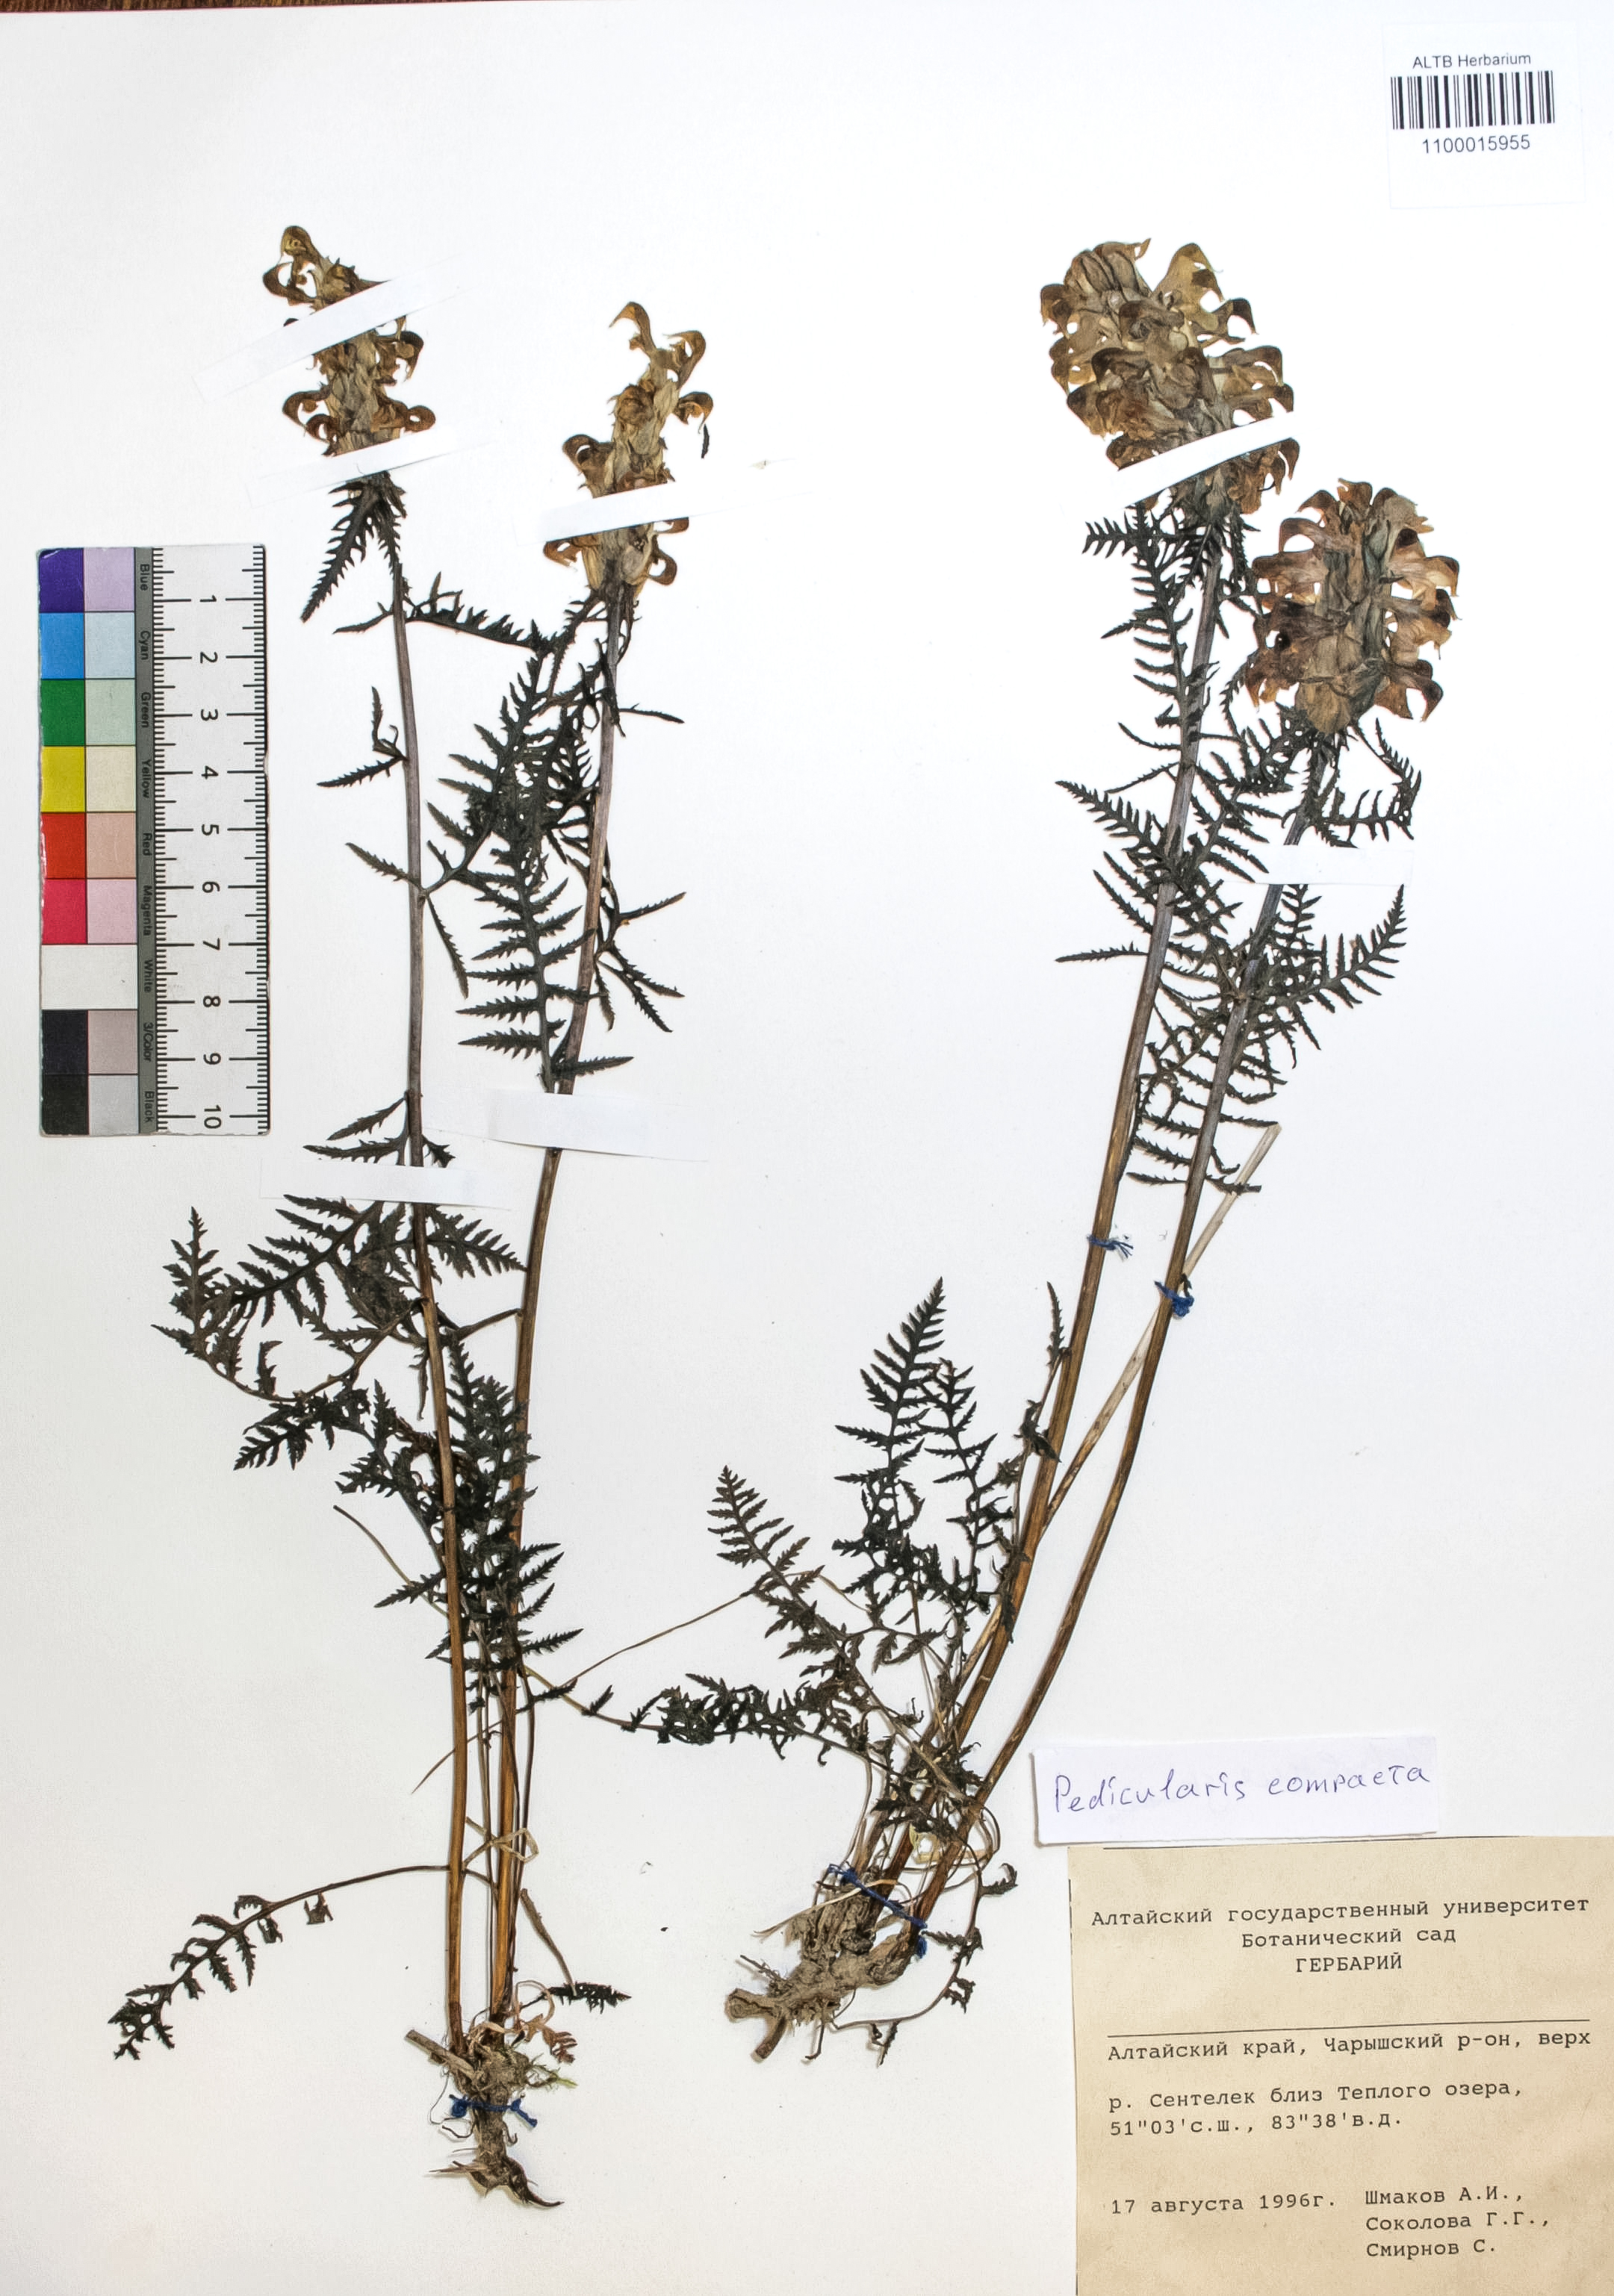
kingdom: Plantae
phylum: Tracheophyta
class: Magnoliopsida
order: Lamiales
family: Orobanchaceae
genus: Pedicularis
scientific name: Pedicularis compacta
